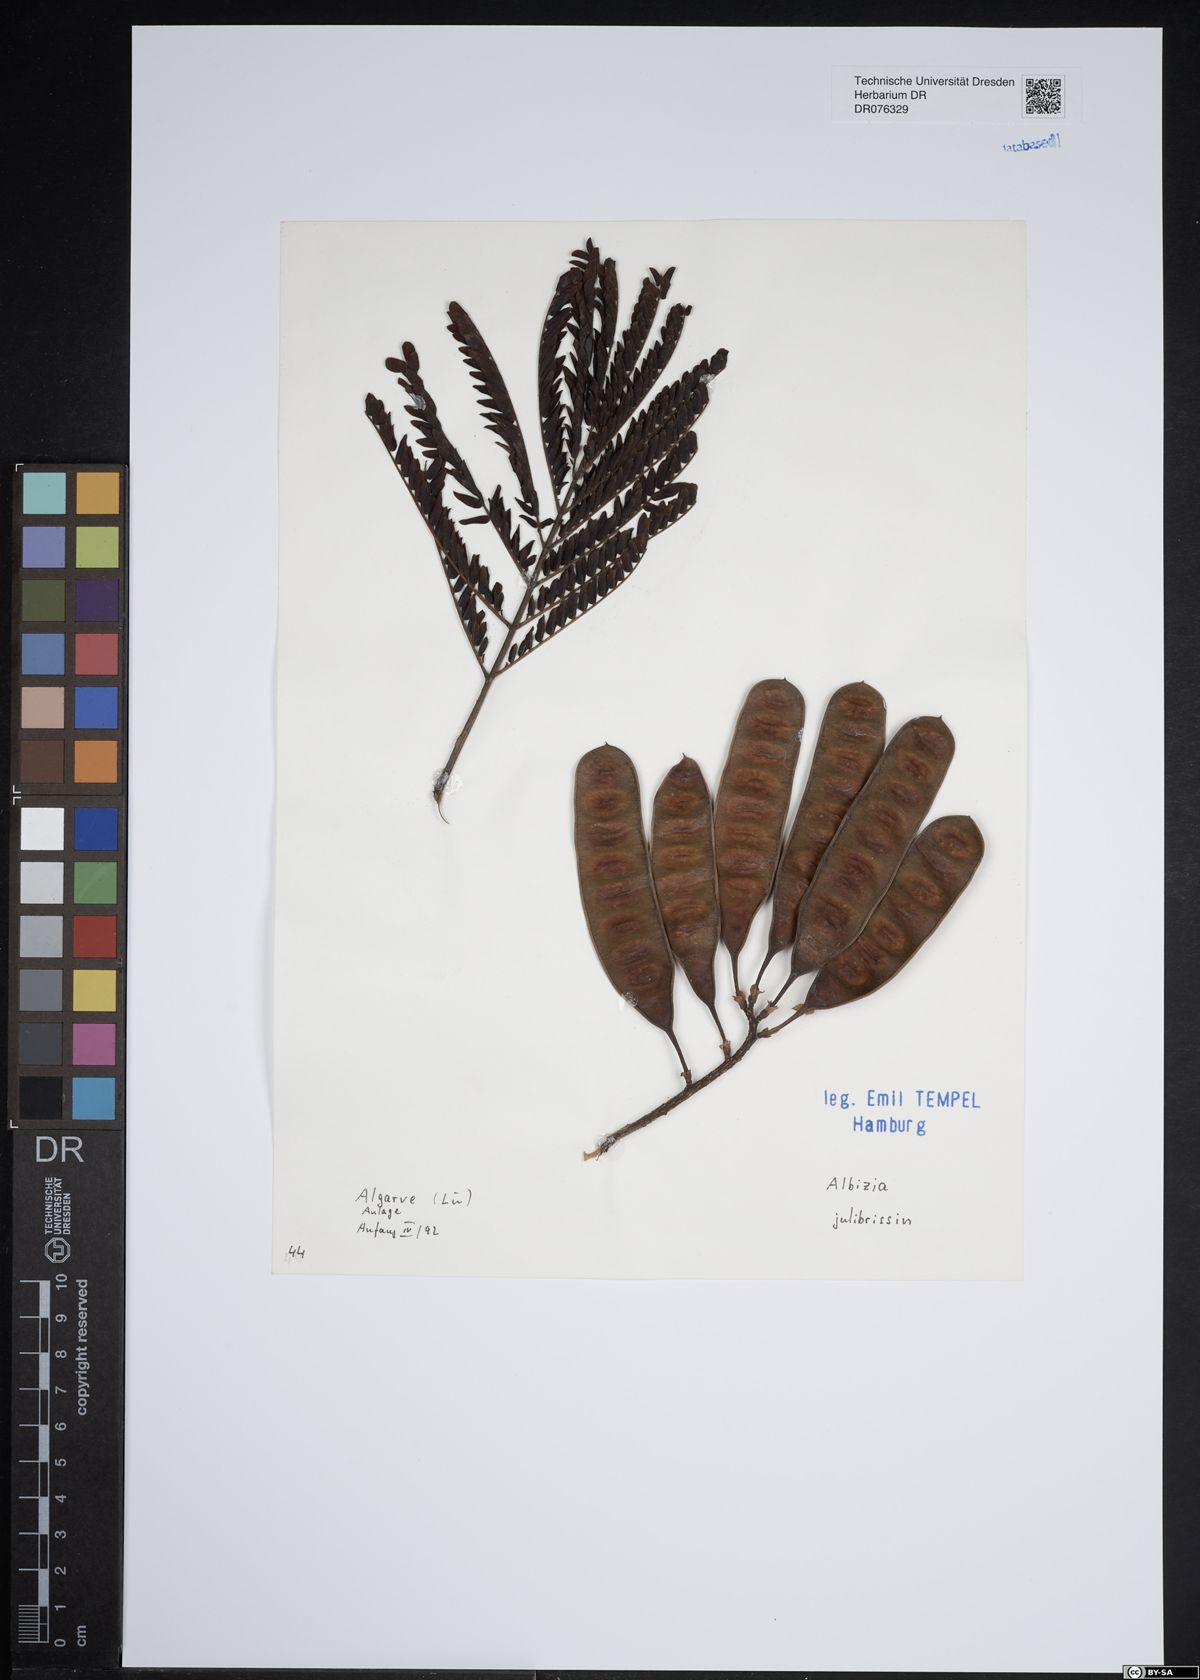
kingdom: Plantae
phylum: Tracheophyta
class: Magnoliopsida
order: Fabales
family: Fabaceae
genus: Albizia
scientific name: Albizia julibrissin
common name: Silktree
